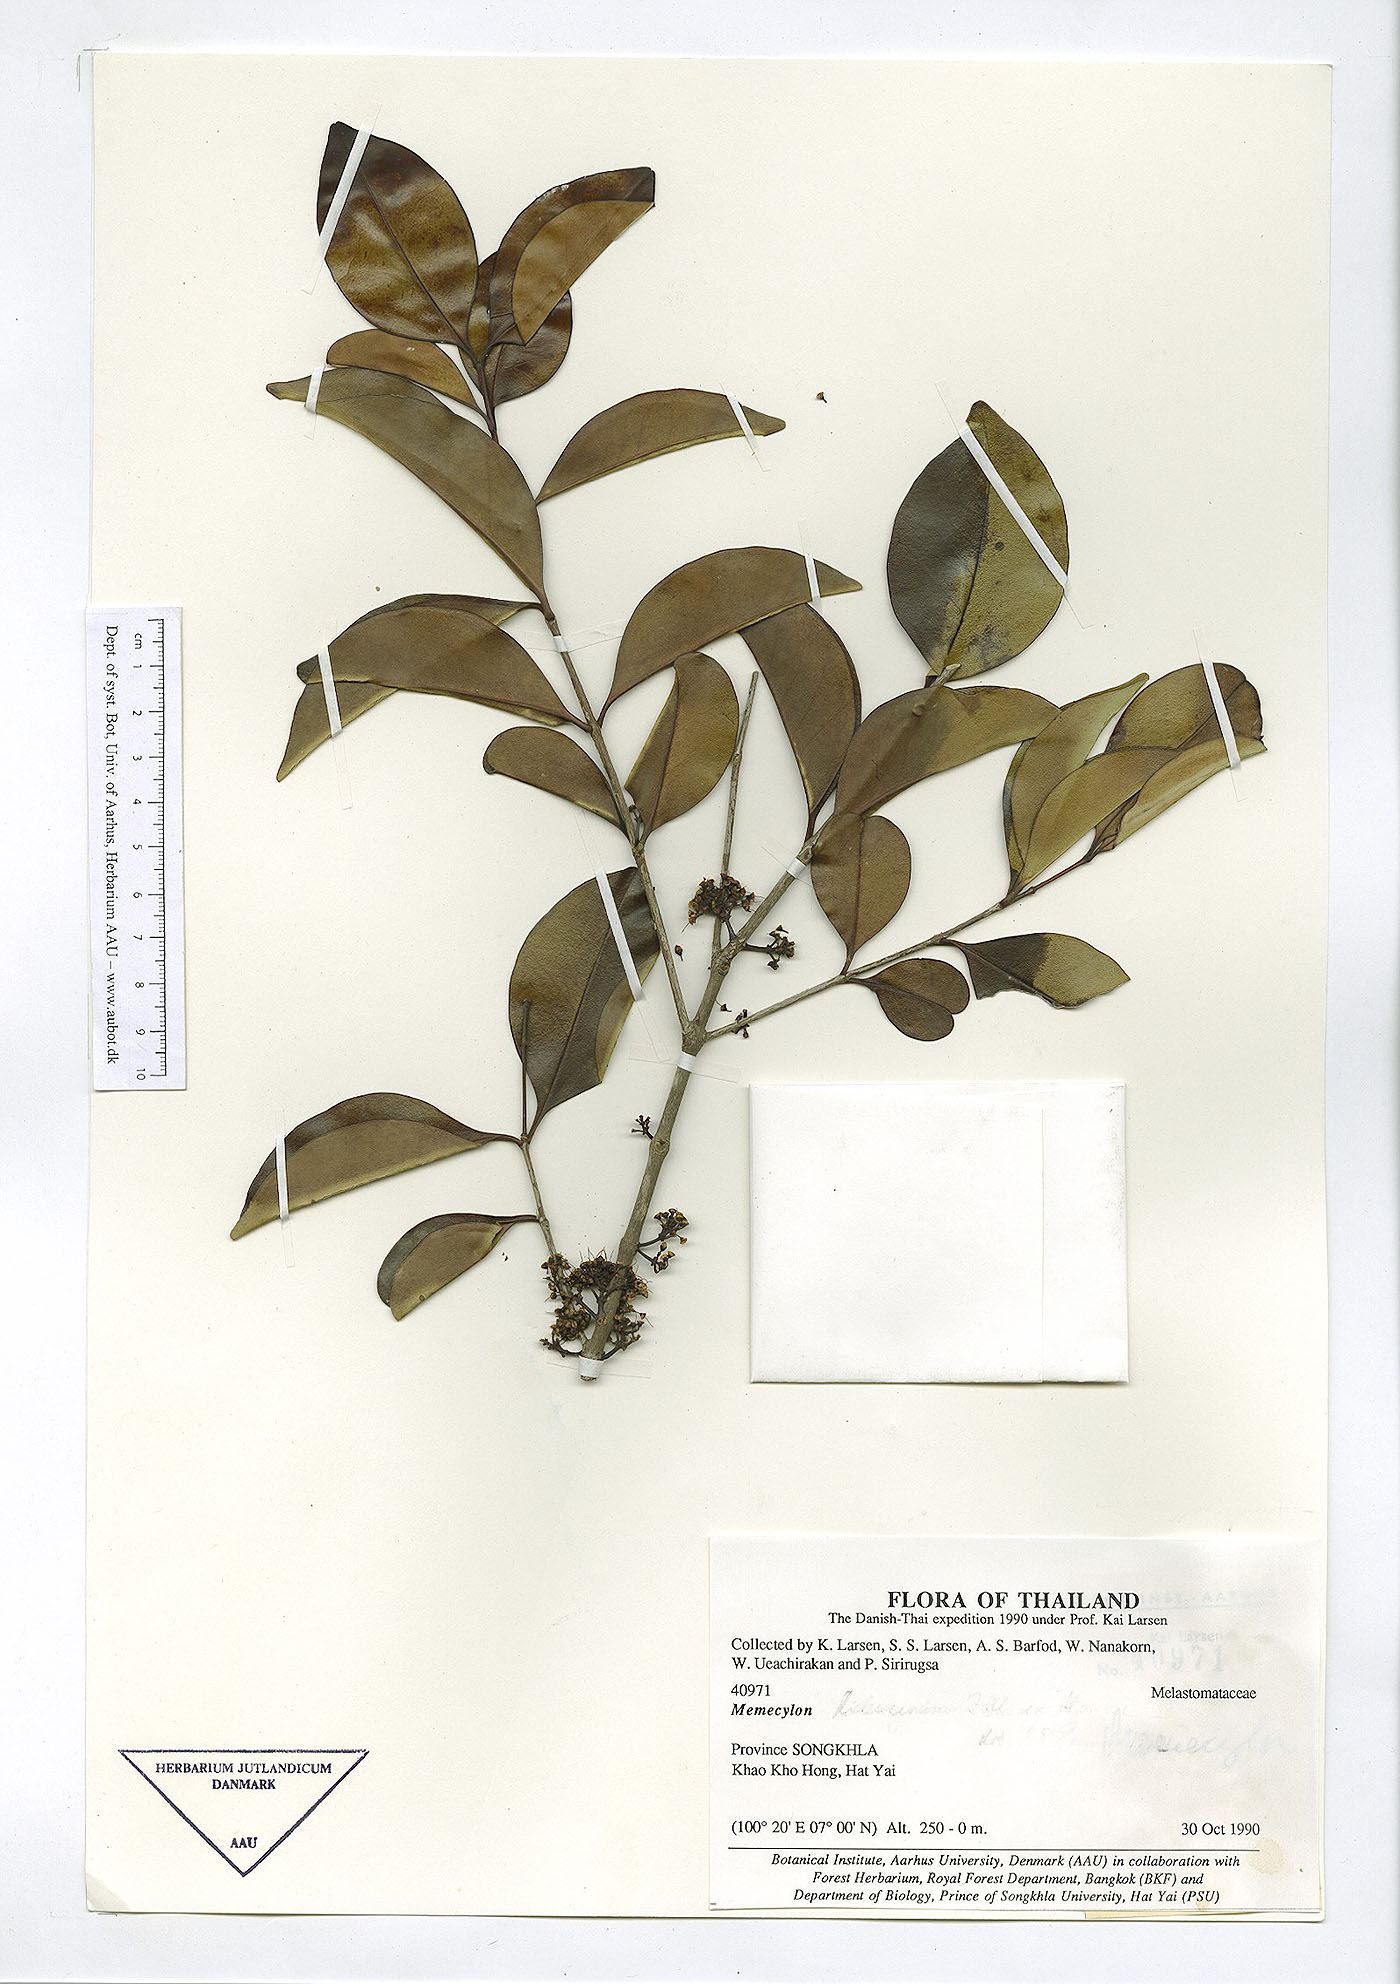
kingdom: Plantae
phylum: Tracheophyta
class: Magnoliopsida
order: Myrtales
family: Melastomataceae
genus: Memecylon
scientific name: Memecylon edule
